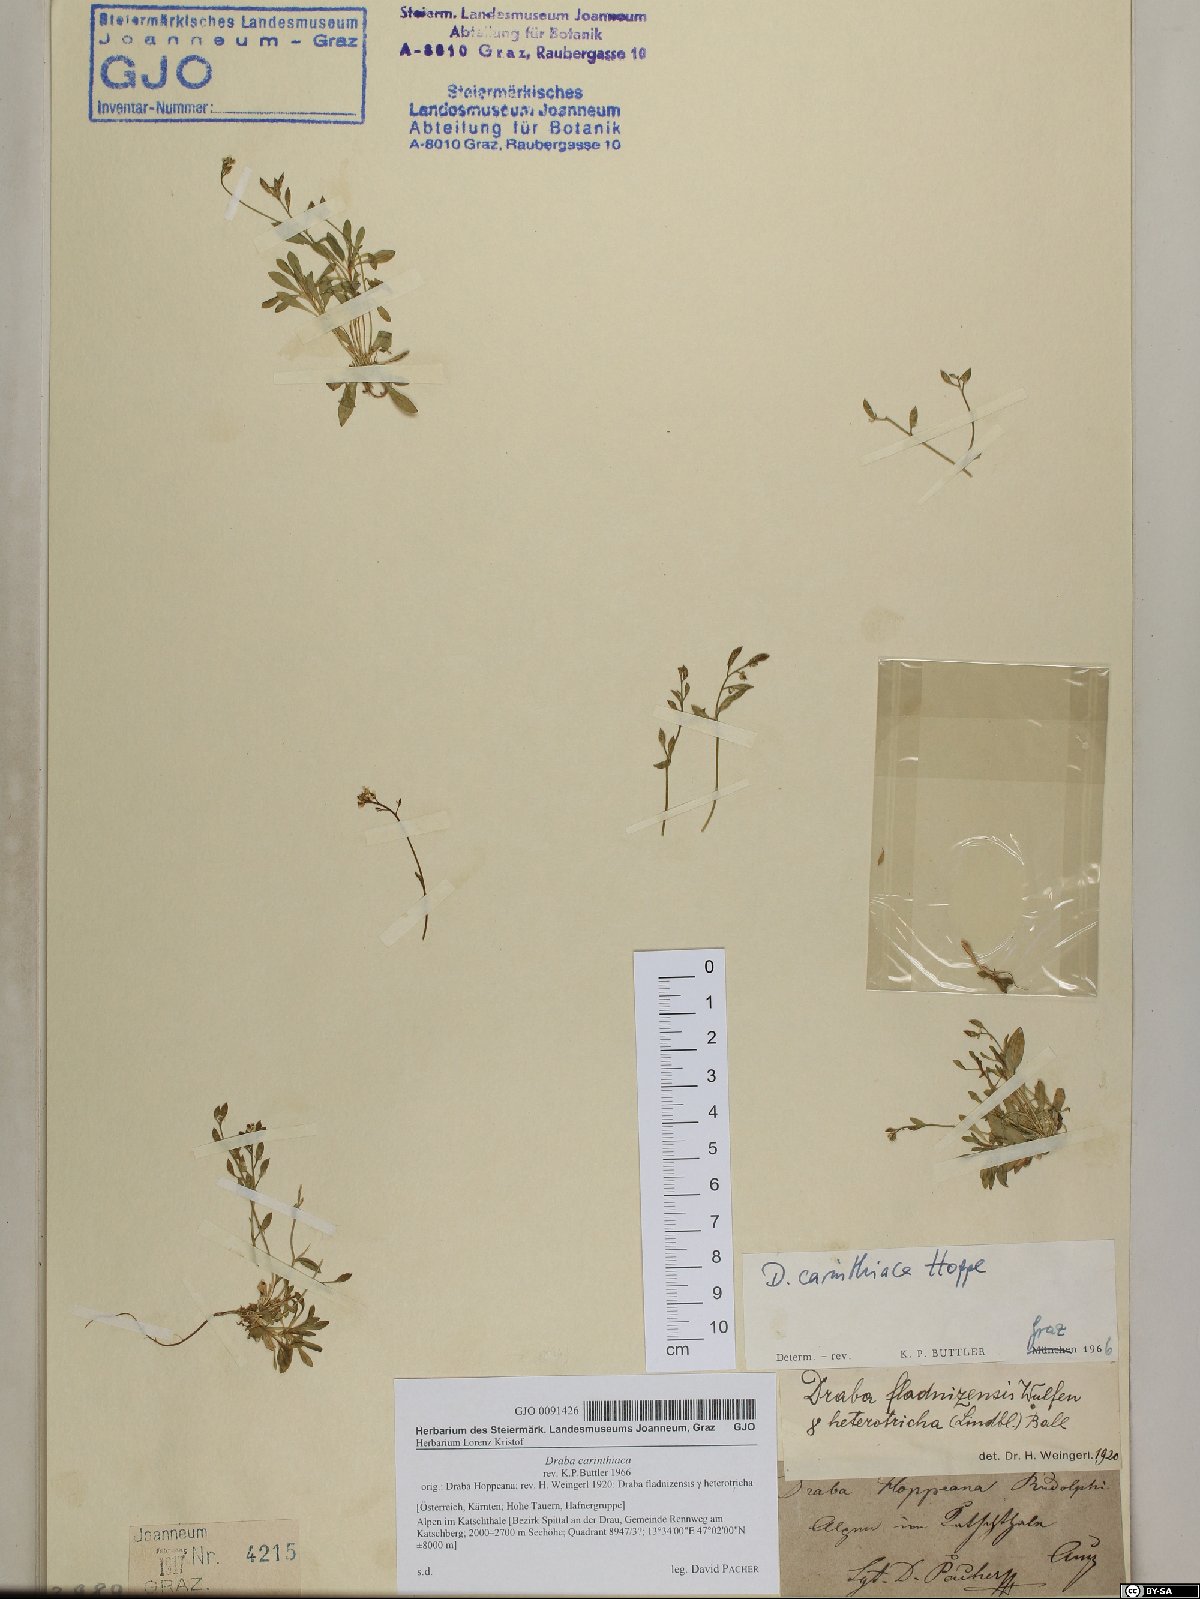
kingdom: Plantae
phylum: Tracheophyta
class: Magnoliopsida
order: Brassicales
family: Brassicaceae
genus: Draba
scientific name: Draba siliquosa
